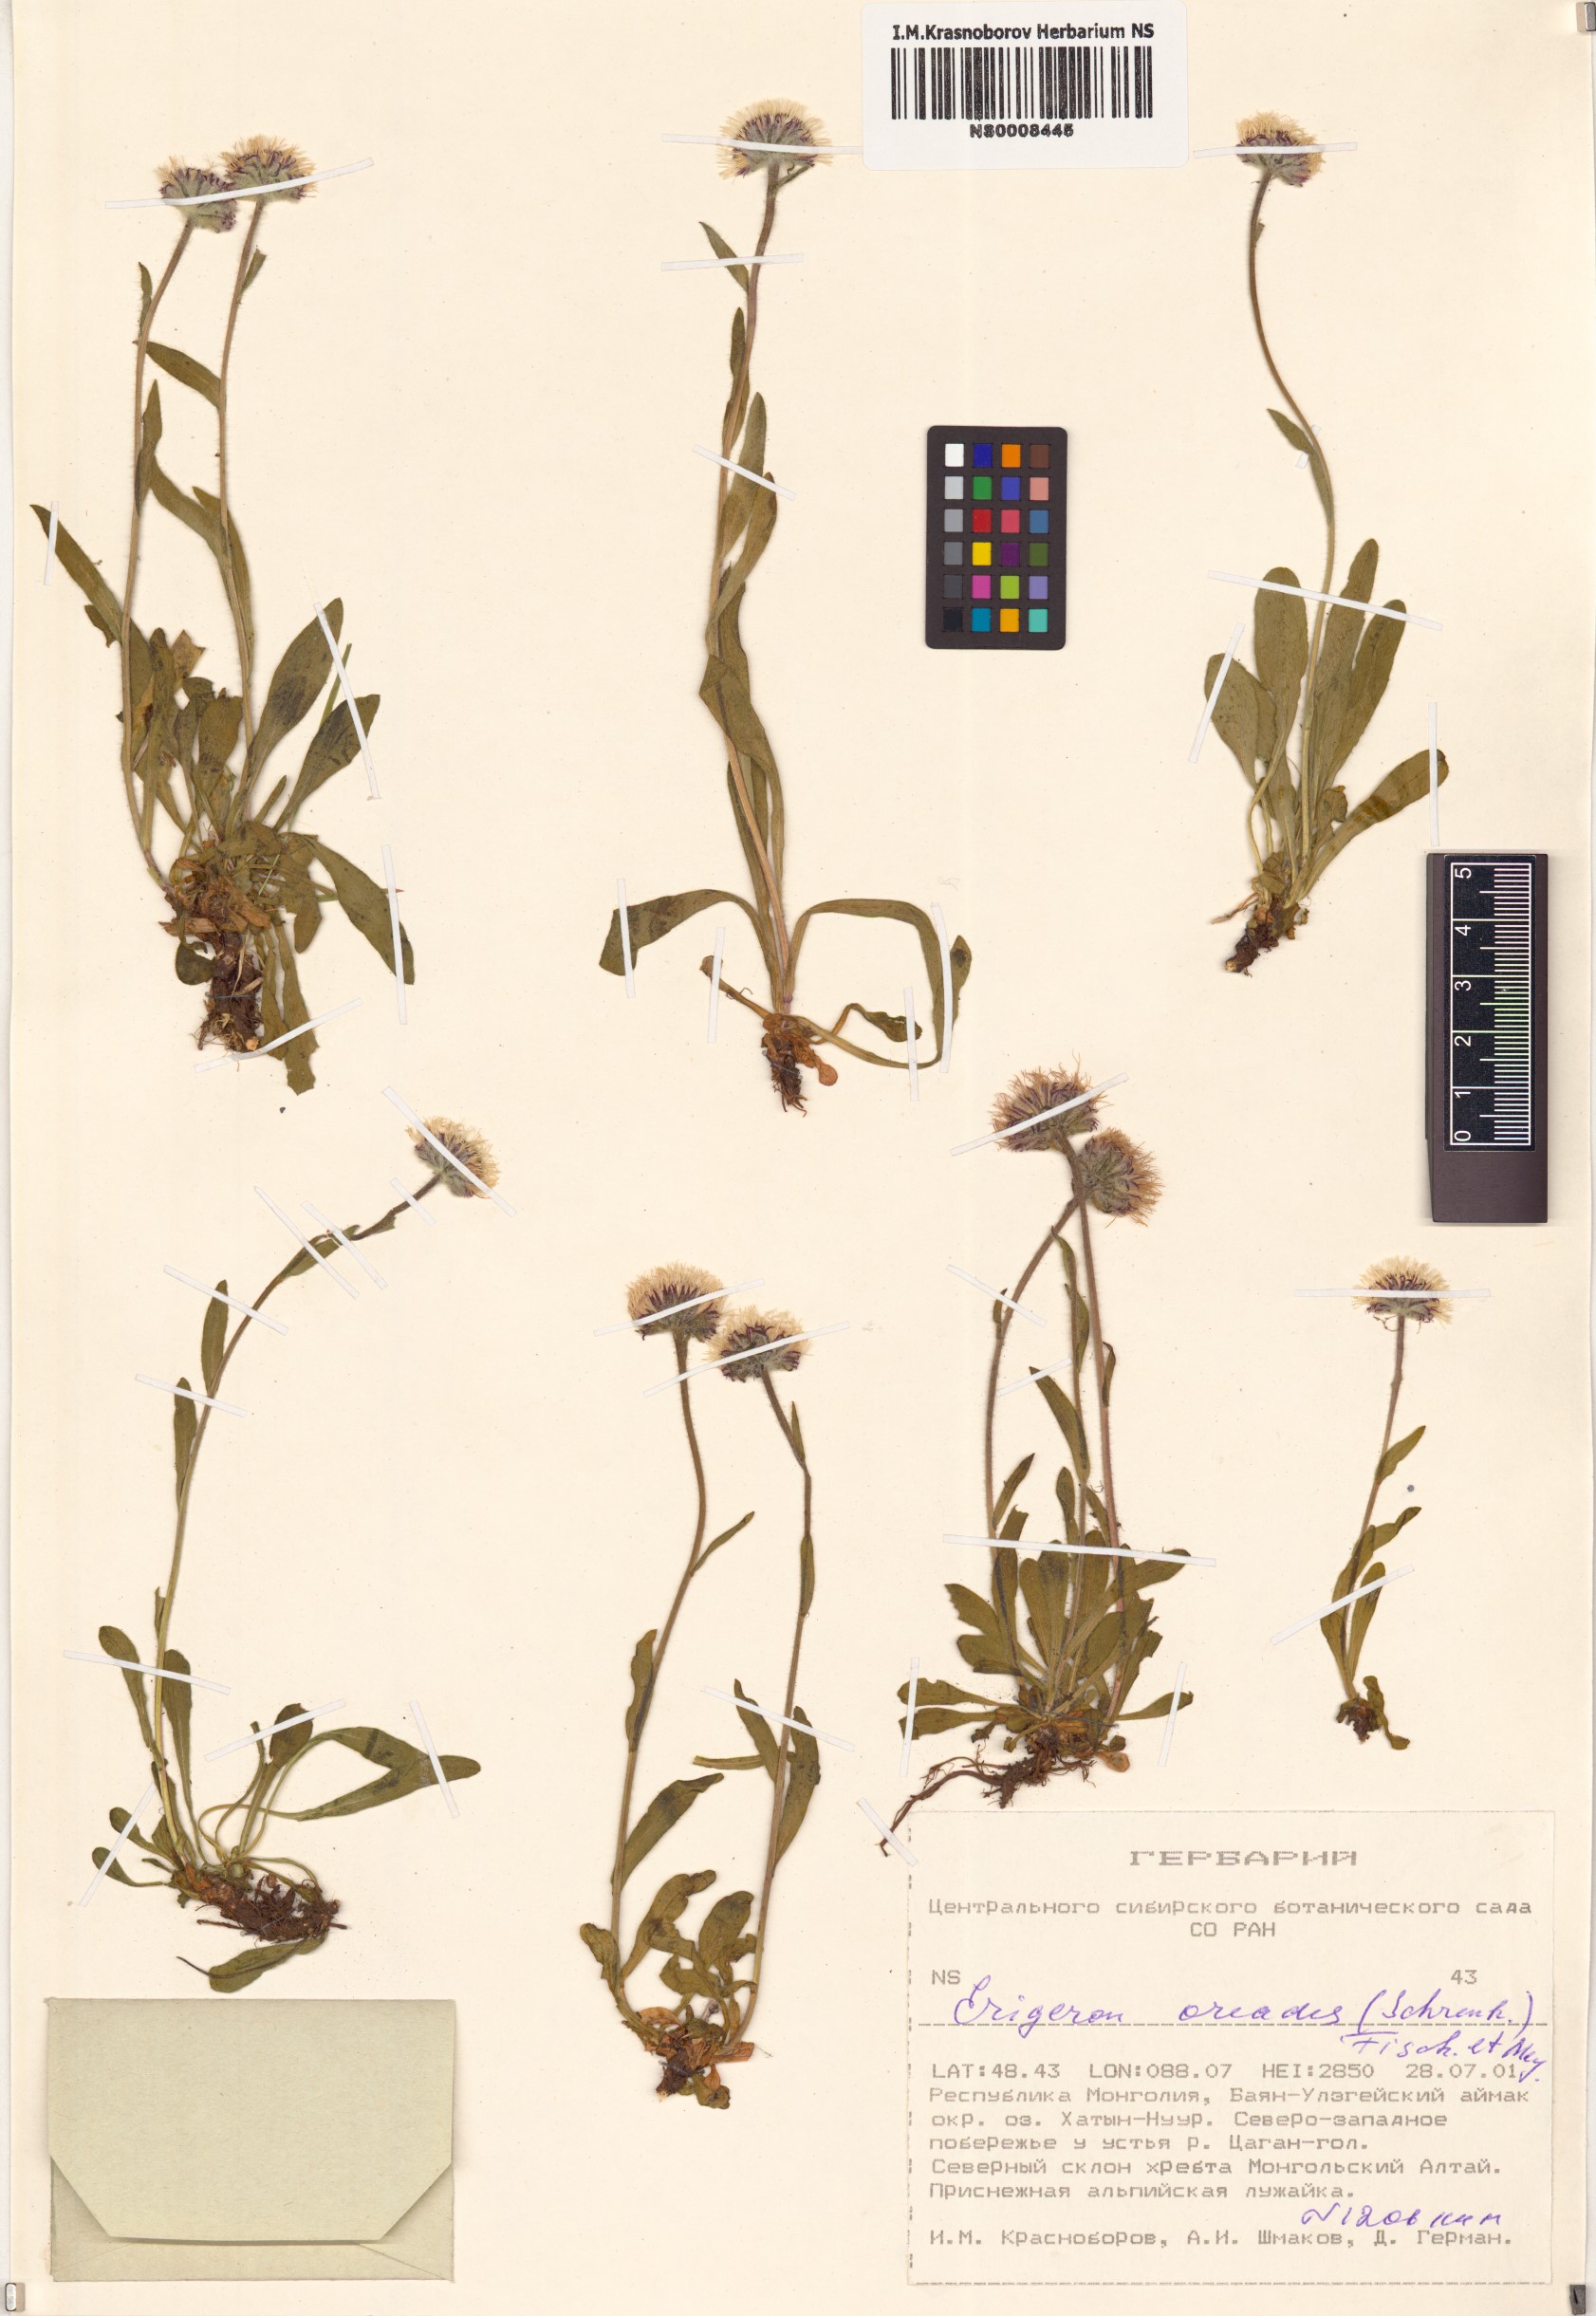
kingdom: Plantae
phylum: Tracheophyta
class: Magnoliopsida
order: Asterales
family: Asteraceae
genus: Erigeron
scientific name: Erigeron oreades
